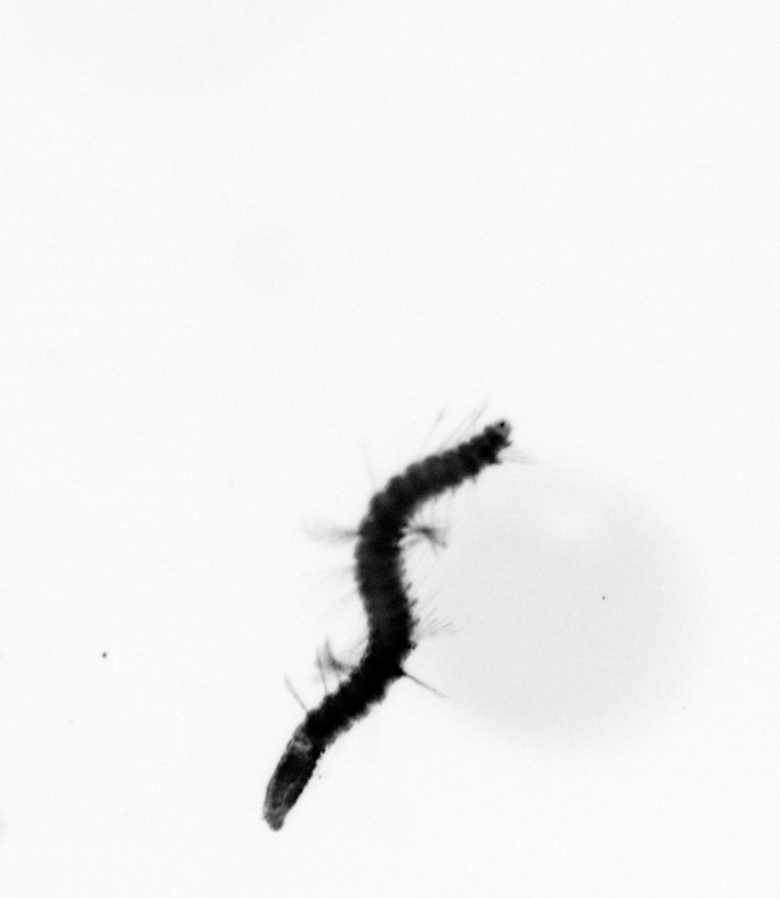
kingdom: Animalia
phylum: Annelida
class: Polychaeta
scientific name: Polychaeta
